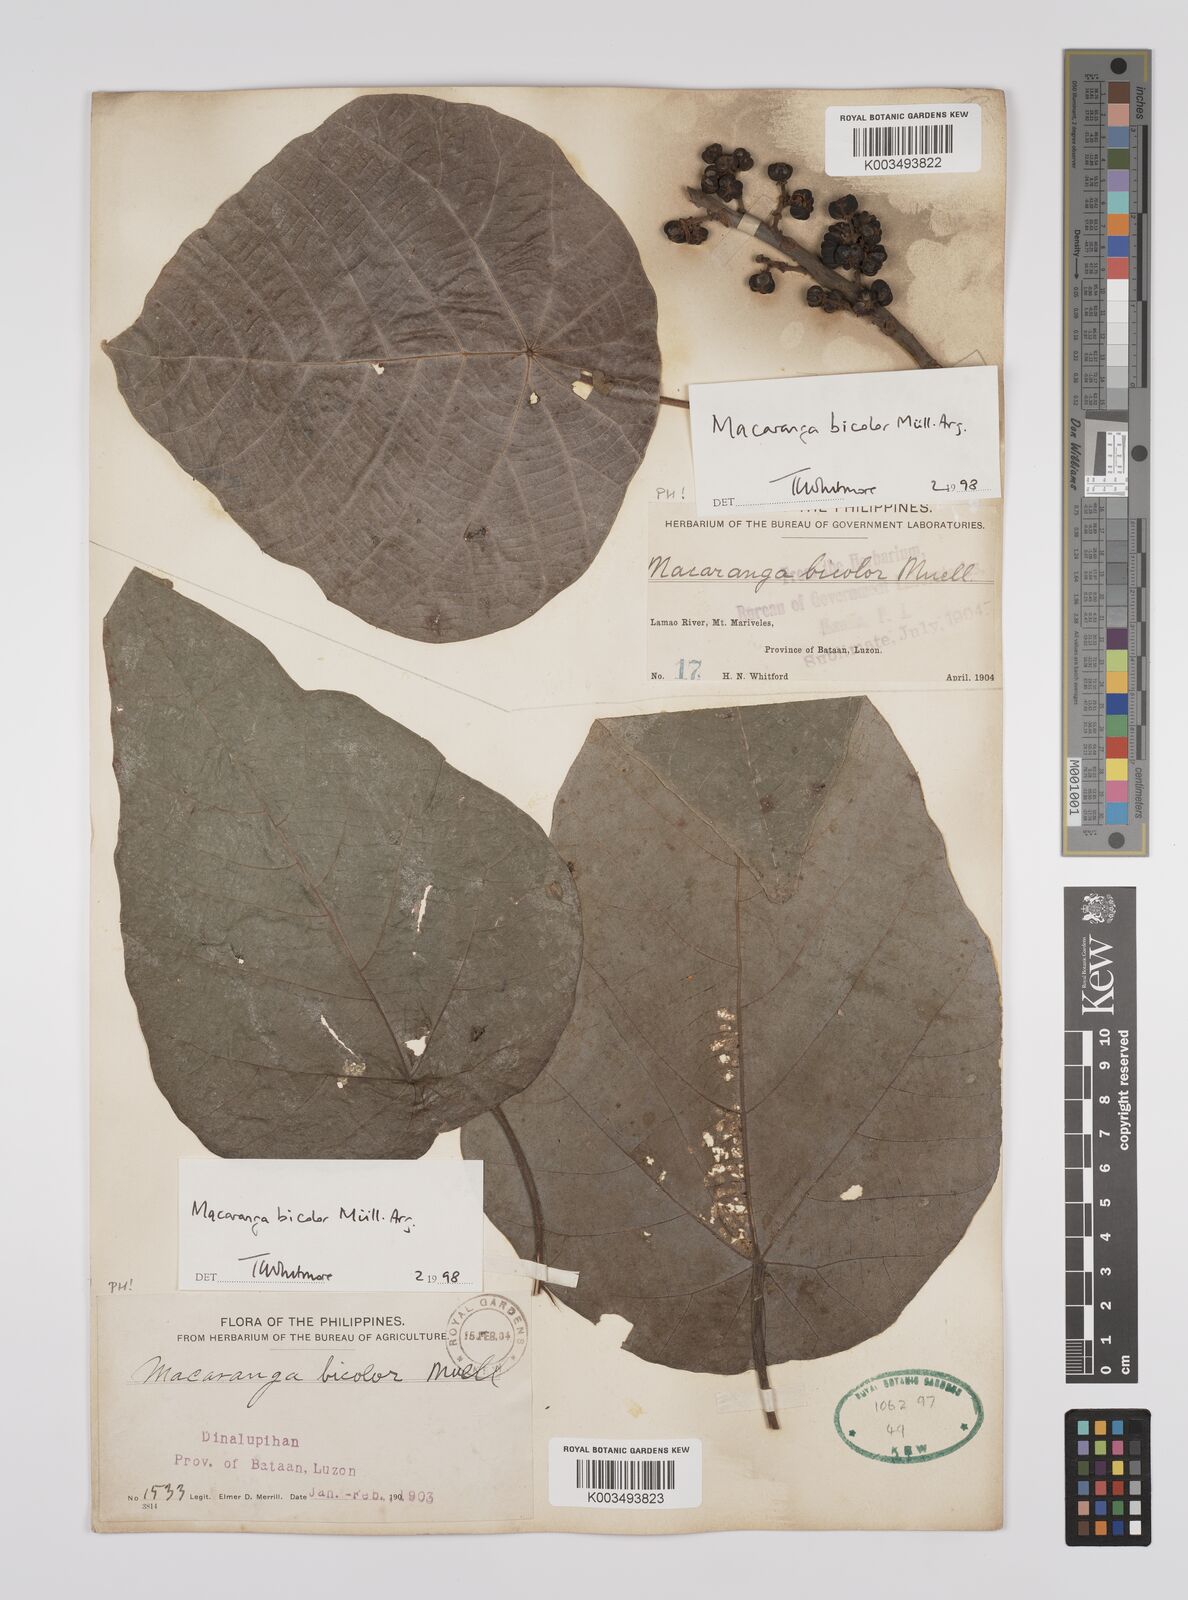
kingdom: Plantae
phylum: Tracheophyta
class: Magnoliopsida
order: Malpighiales
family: Euphorbiaceae
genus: Macaranga
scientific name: Macaranga bicolor
